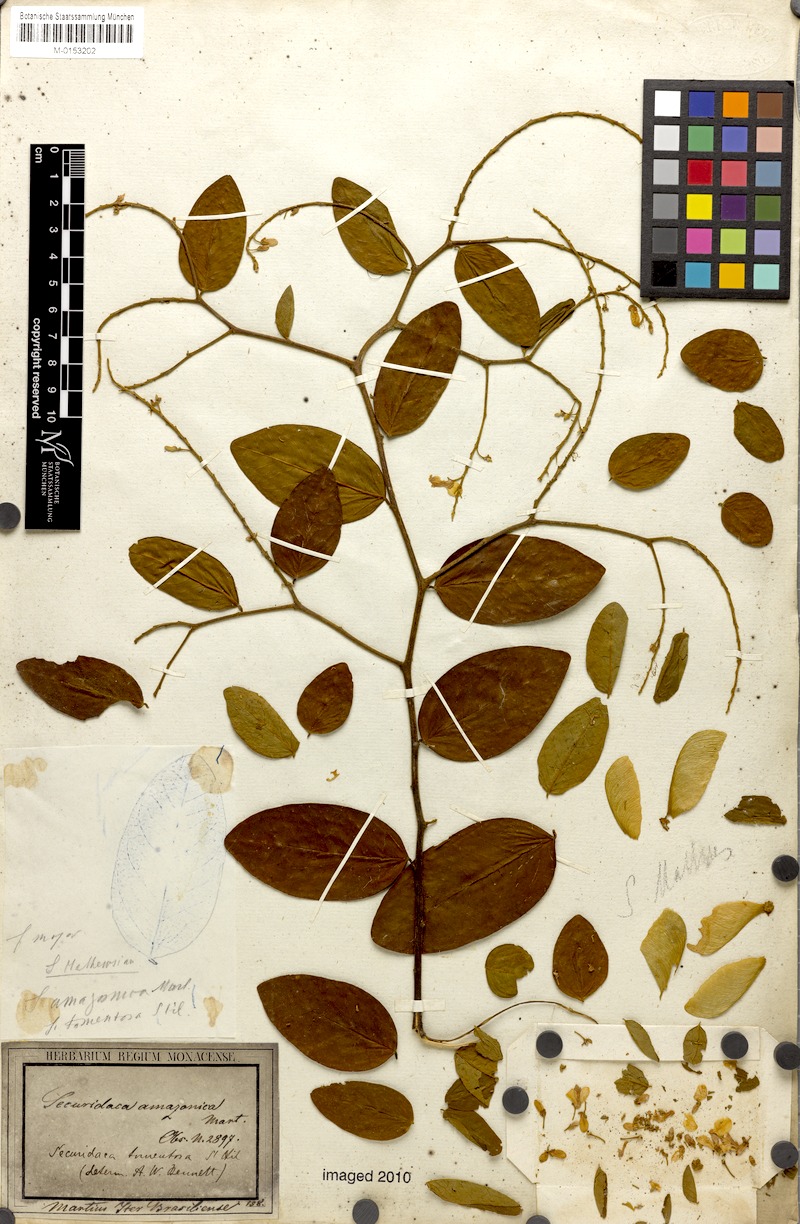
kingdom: Plantae
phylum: Tracheophyta
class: Magnoliopsida
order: Fabales
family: Polygalaceae
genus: Securidaca
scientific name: Securidaca tomentosa
